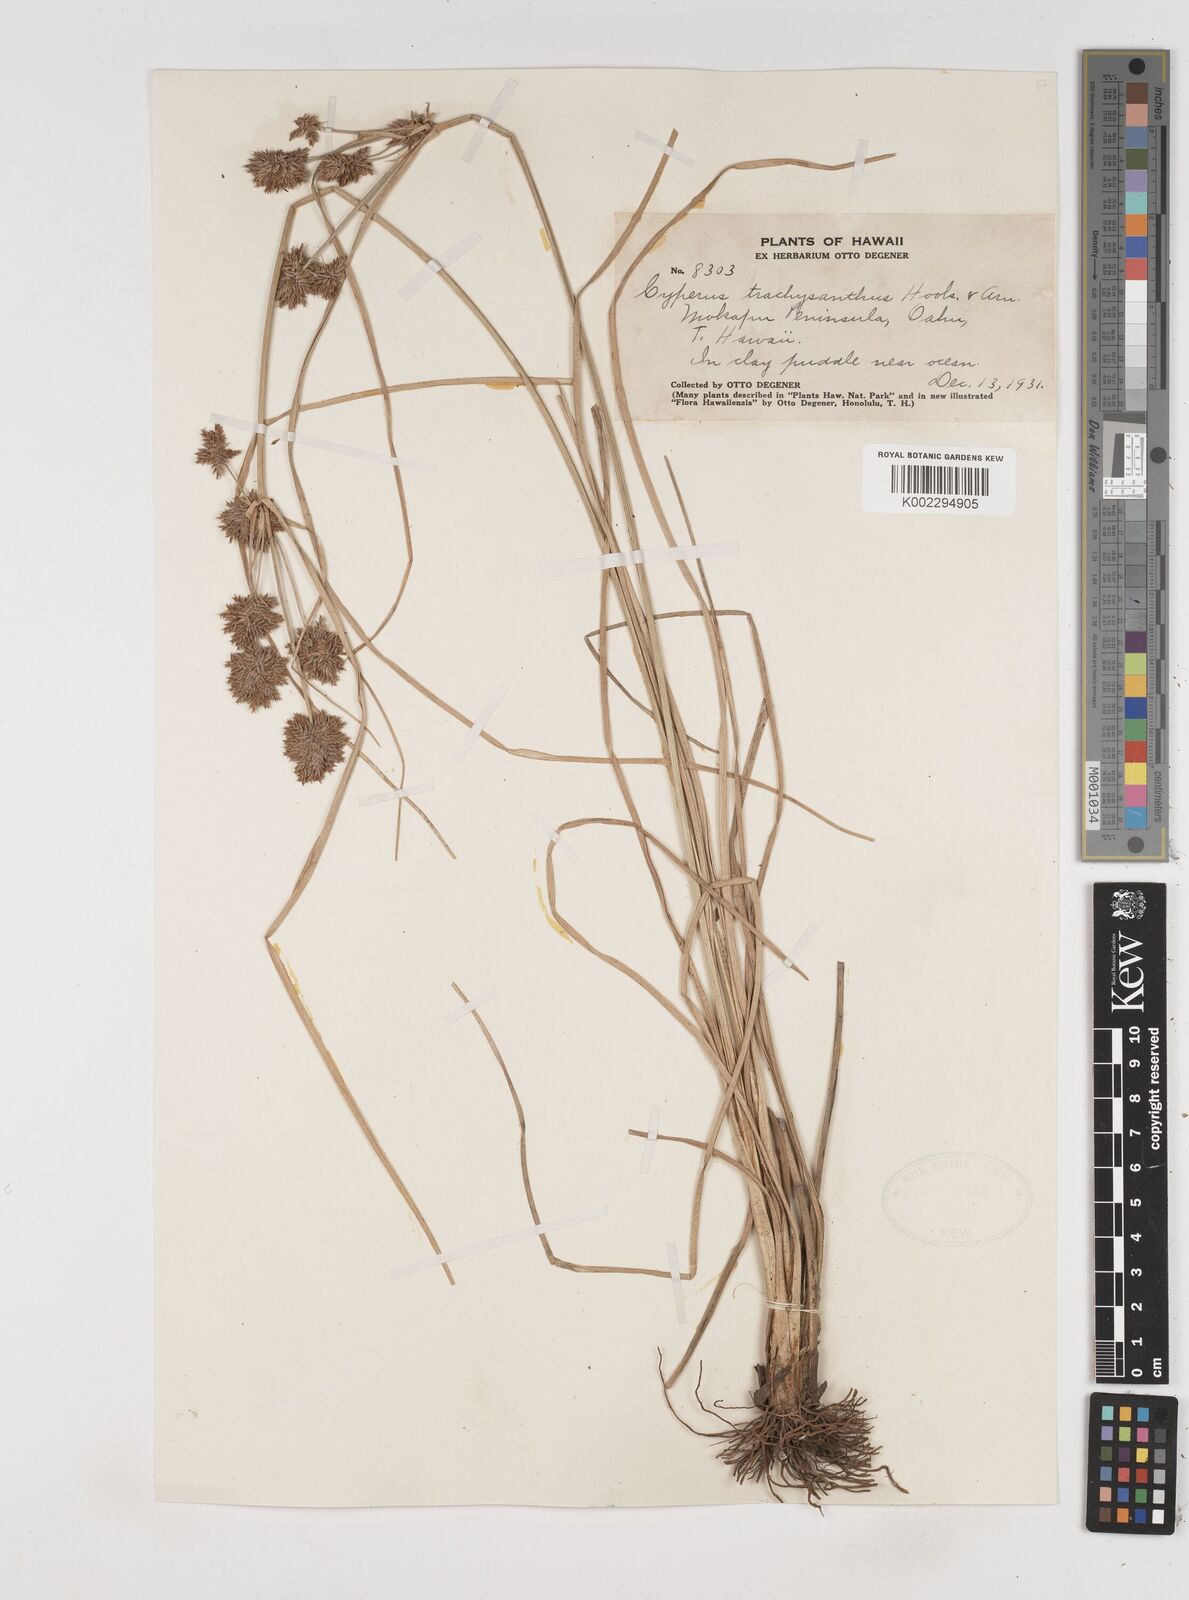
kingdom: Plantae
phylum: Tracheophyta
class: Liliopsida
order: Poales
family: Cyperaceae
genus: Cyperus
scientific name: Cyperus trachysanthos
